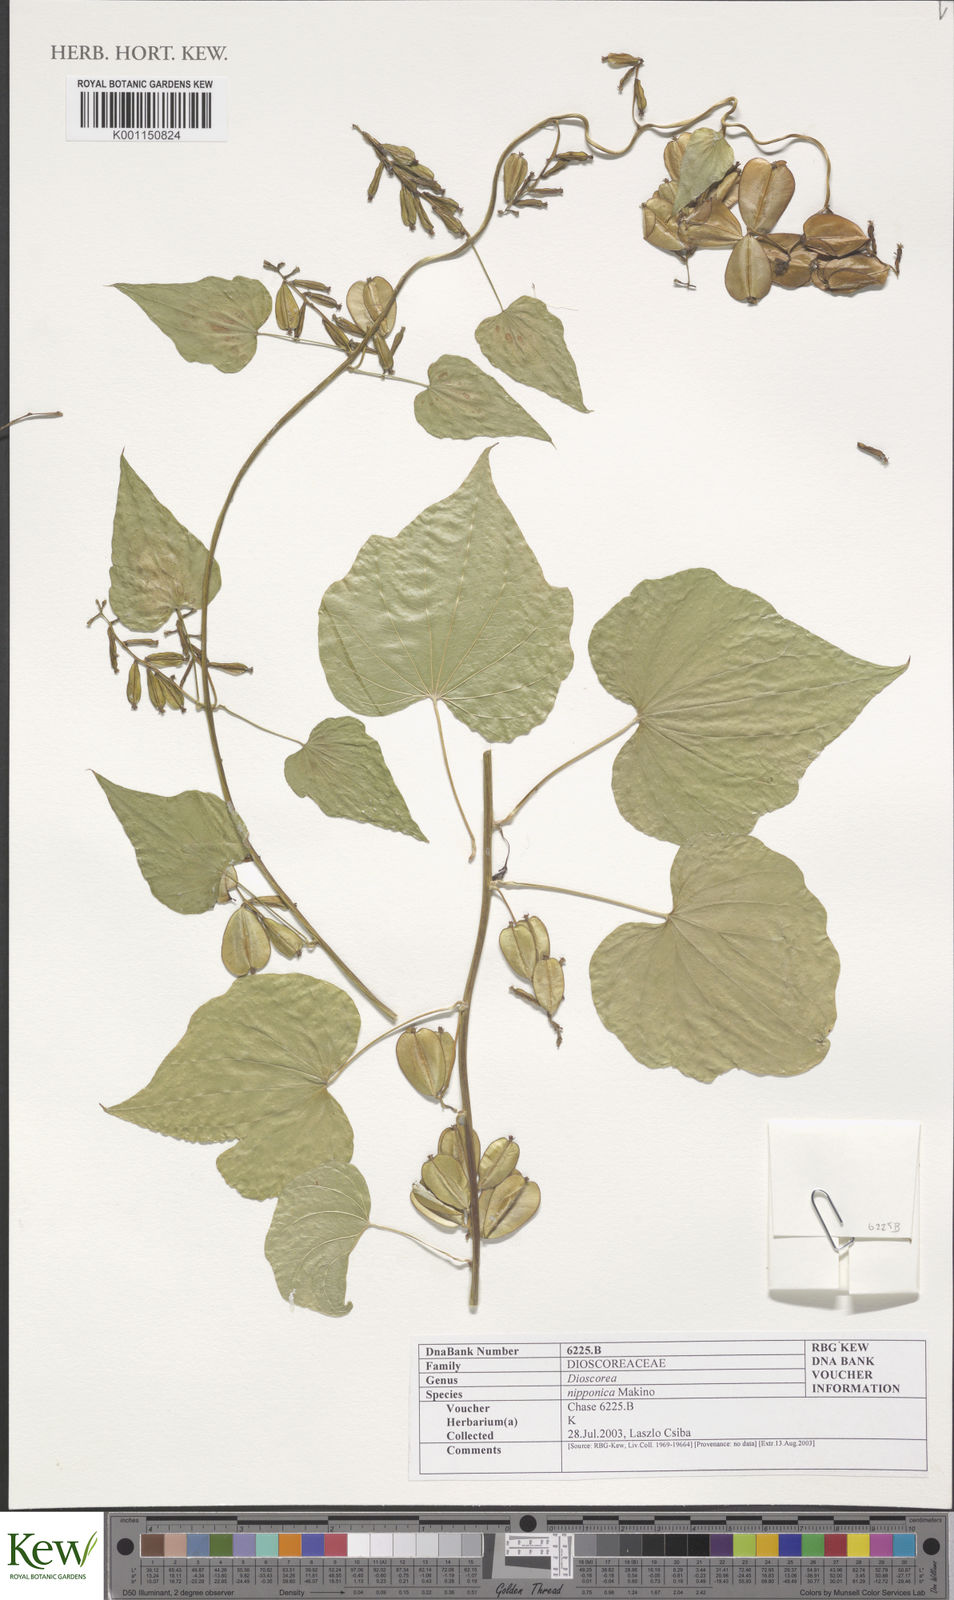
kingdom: Plantae
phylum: Tracheophyta
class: Liliopsida
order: Dioscoreales
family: Dioscoreaceae
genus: Dioscorea
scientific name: Dioscorea nipponica
